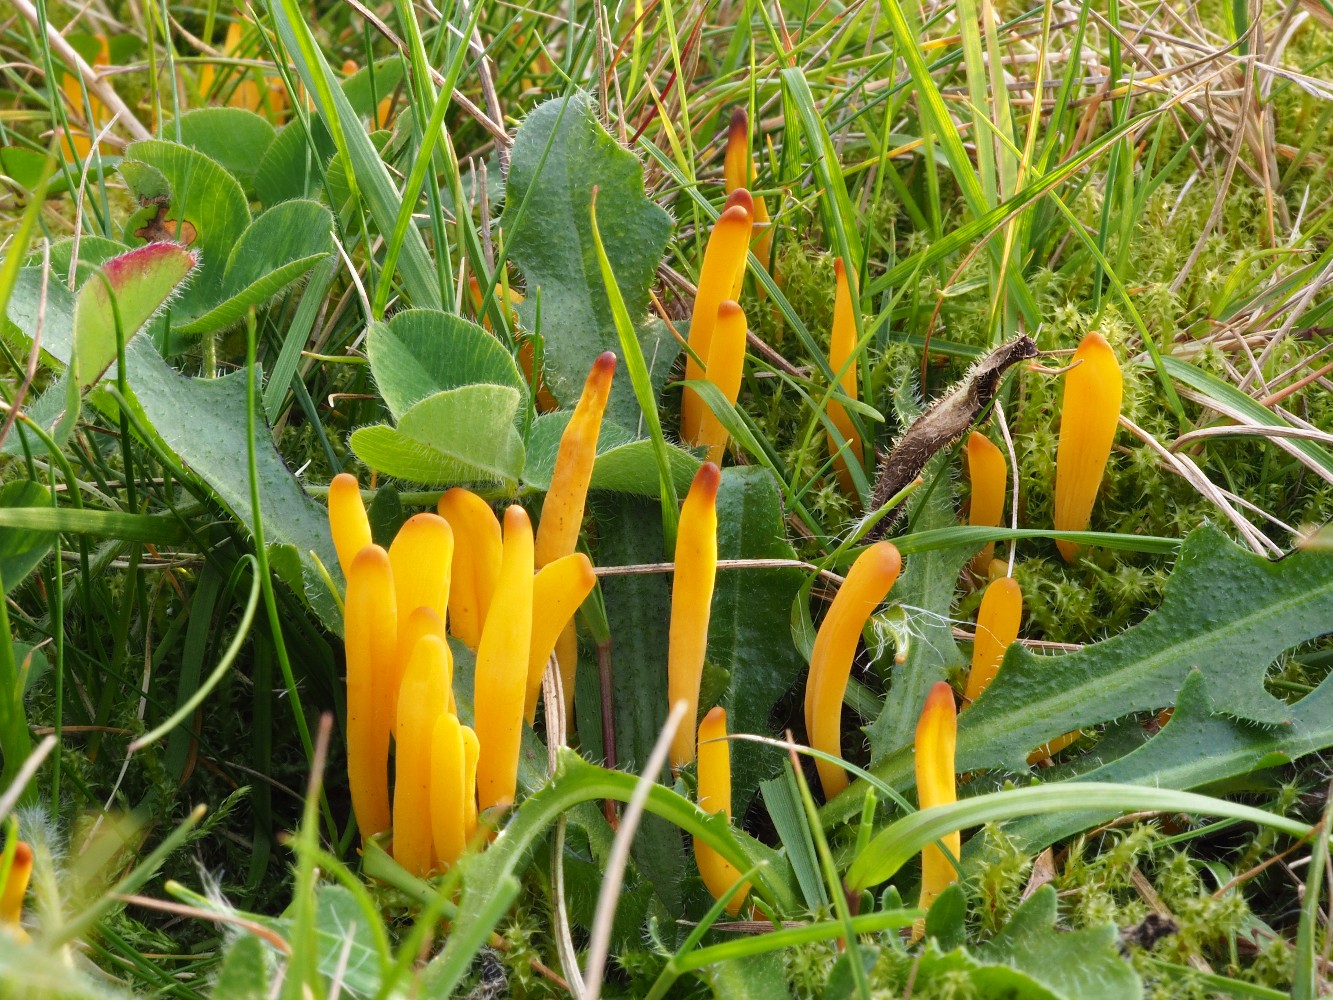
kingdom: Fungi
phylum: Basidiomycota
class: Agaricomycetes
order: Agaricales
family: Clavariaceae
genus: Clavulinopsis
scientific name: Clavulinopsis helvola
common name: orangegul køllesvamp
